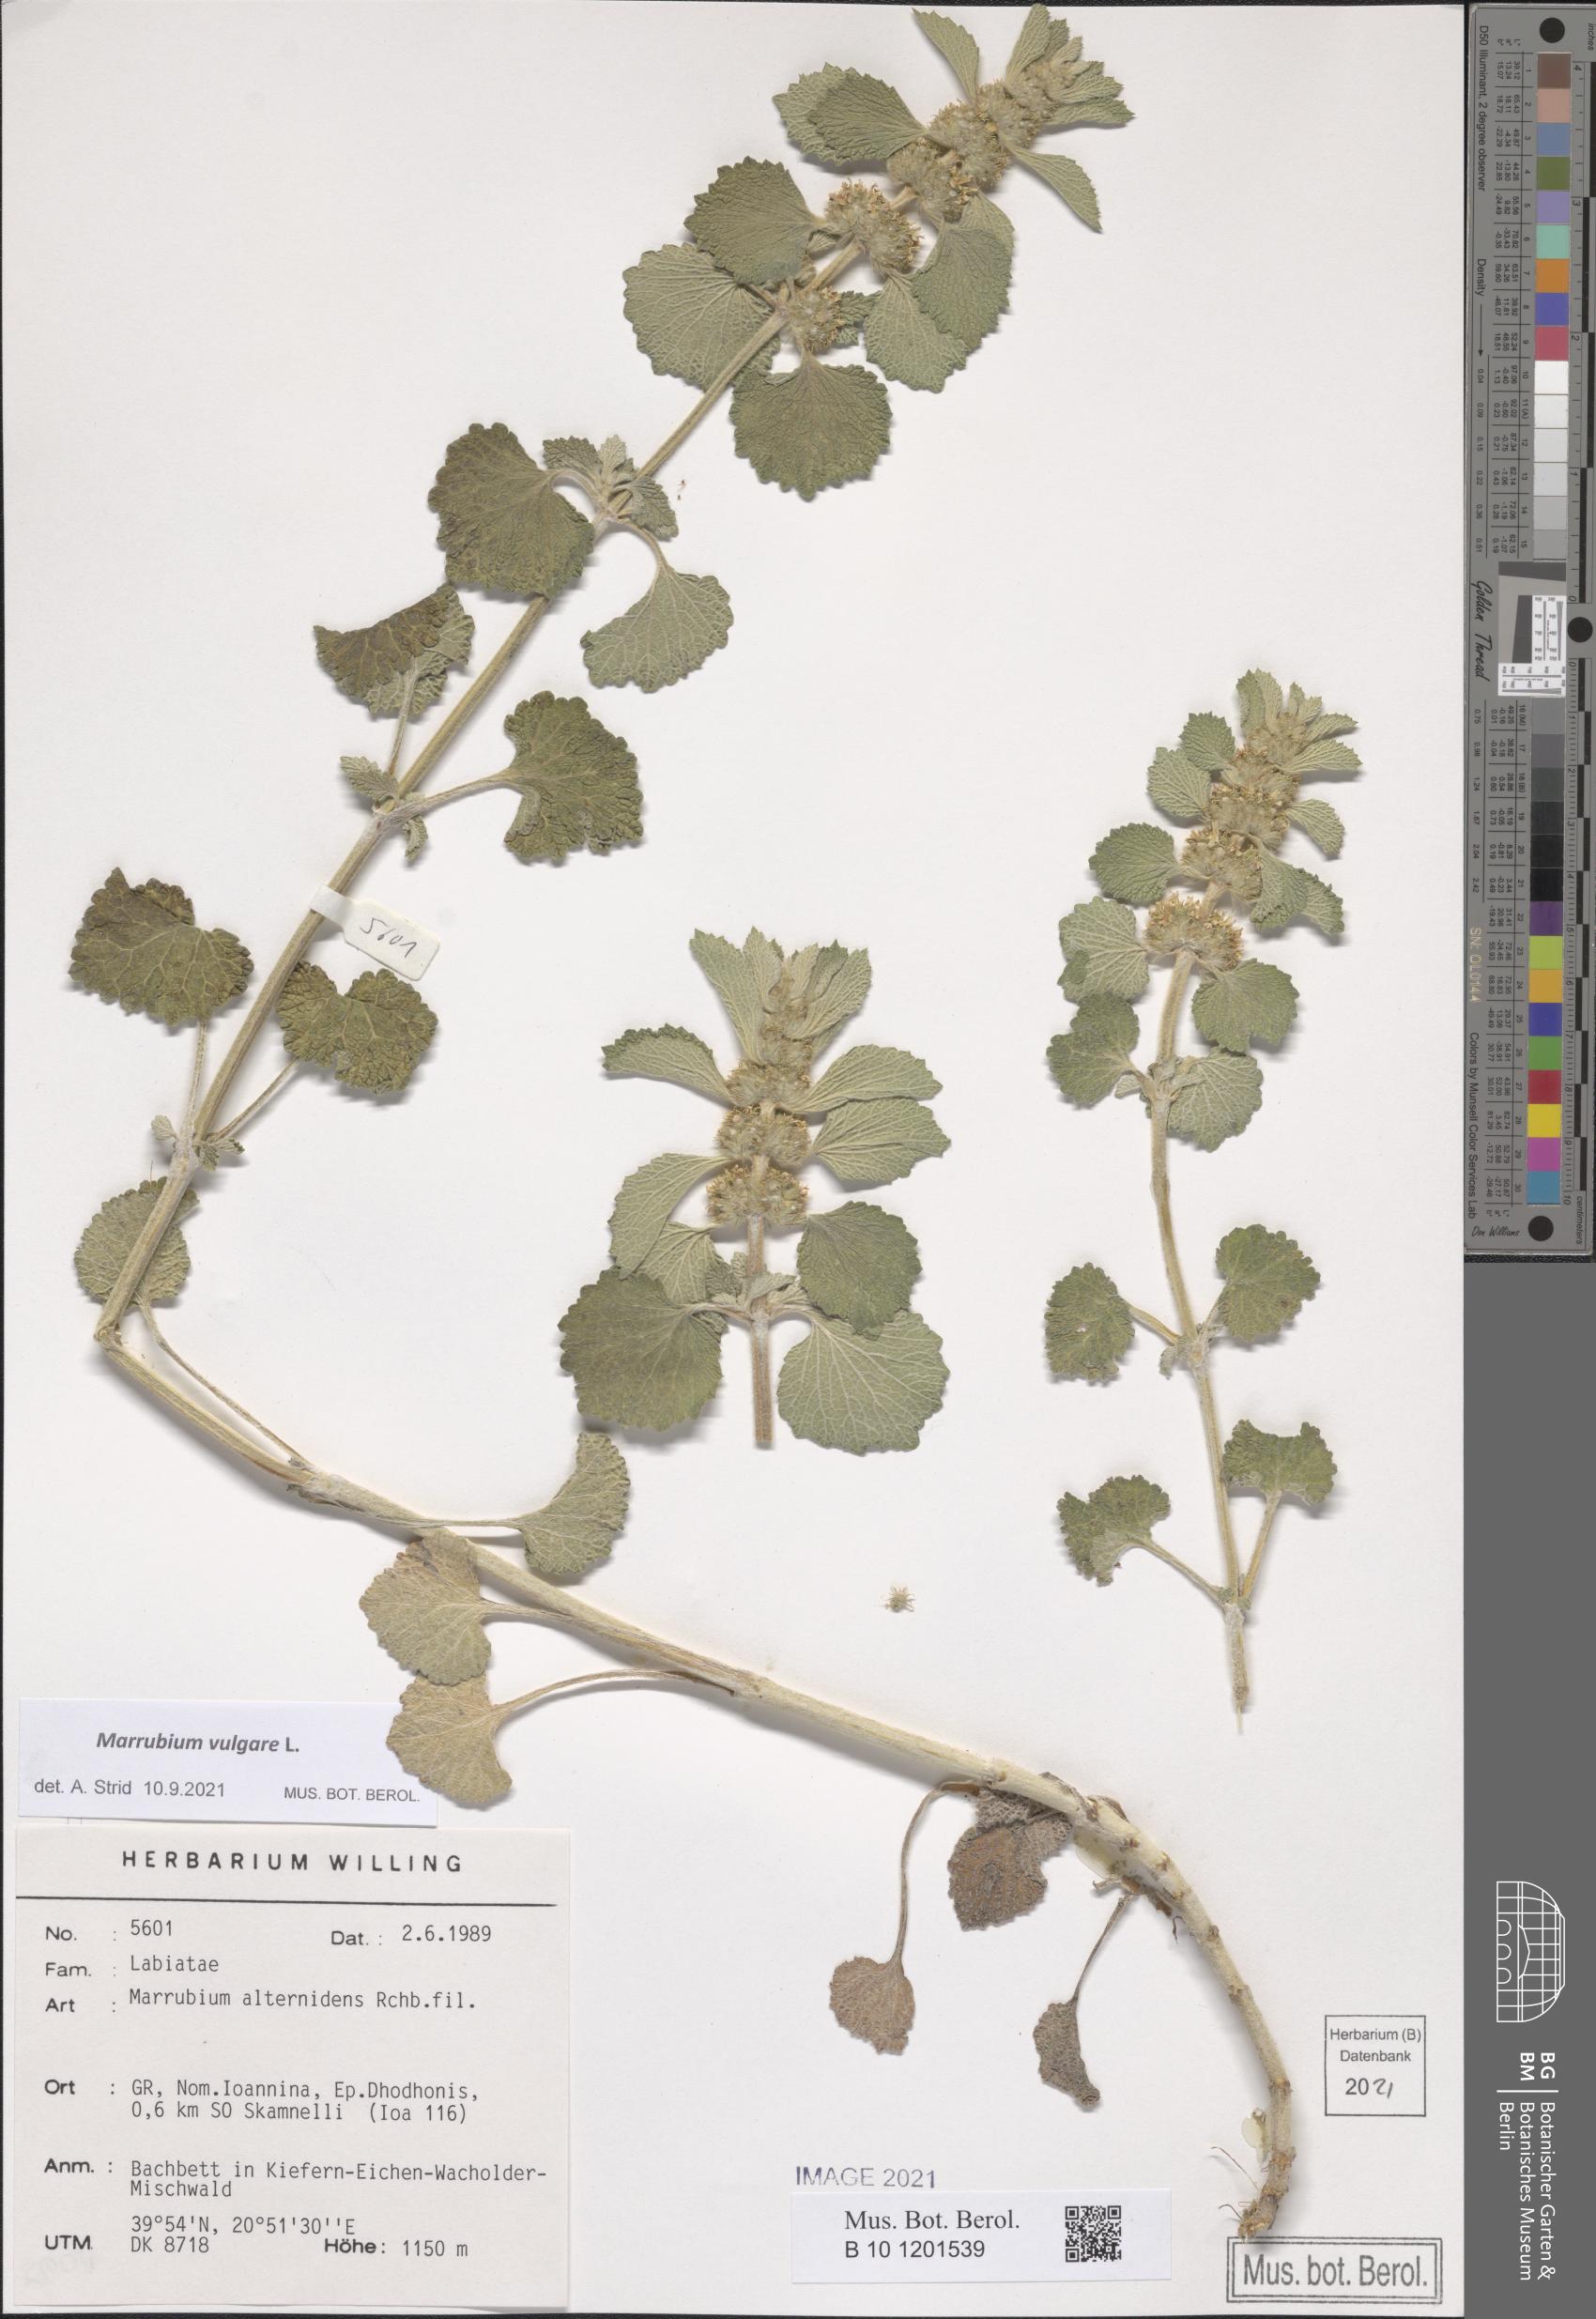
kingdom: Plantae
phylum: Tracheophyta
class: Magnoliopsida
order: Lamiales
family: Lamiaceae
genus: Marrubium
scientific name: Marrubium vulgare
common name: Horehound
